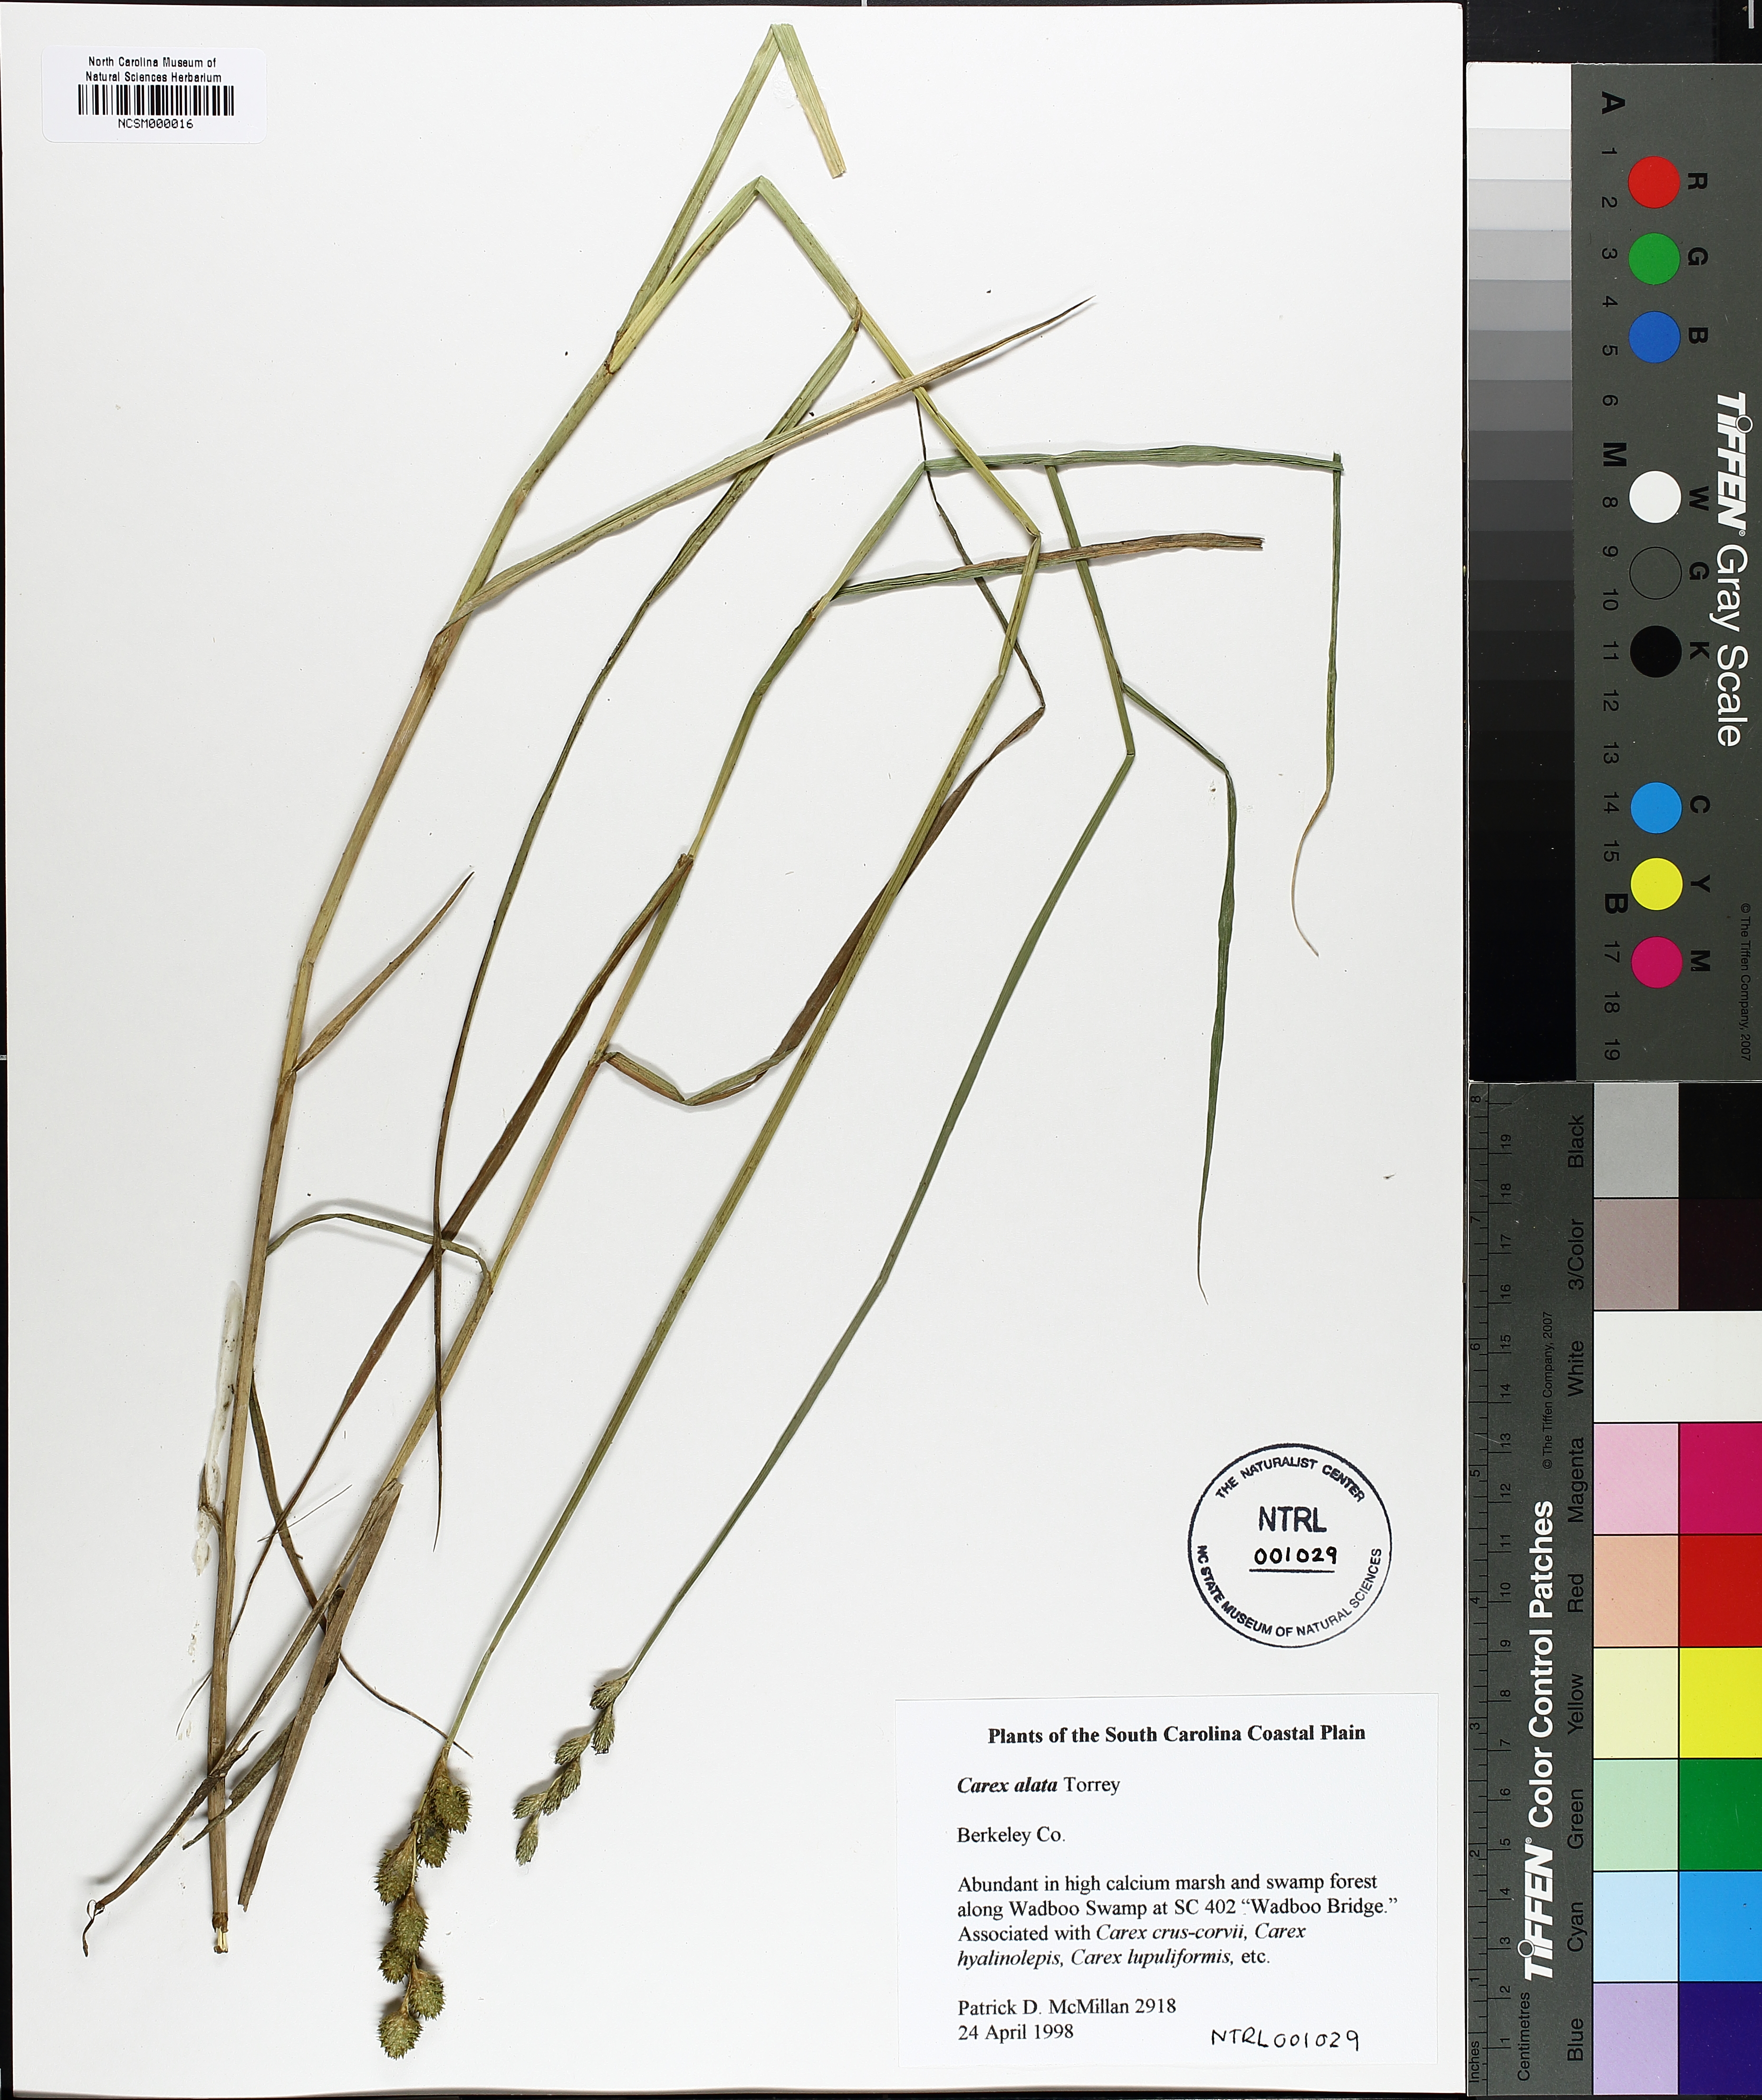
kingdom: Plantae
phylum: Tracheophyta
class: Liliopsida
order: Poales
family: Cyperaceae
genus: Carex
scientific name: Carex alata
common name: Broad-winged sedge
